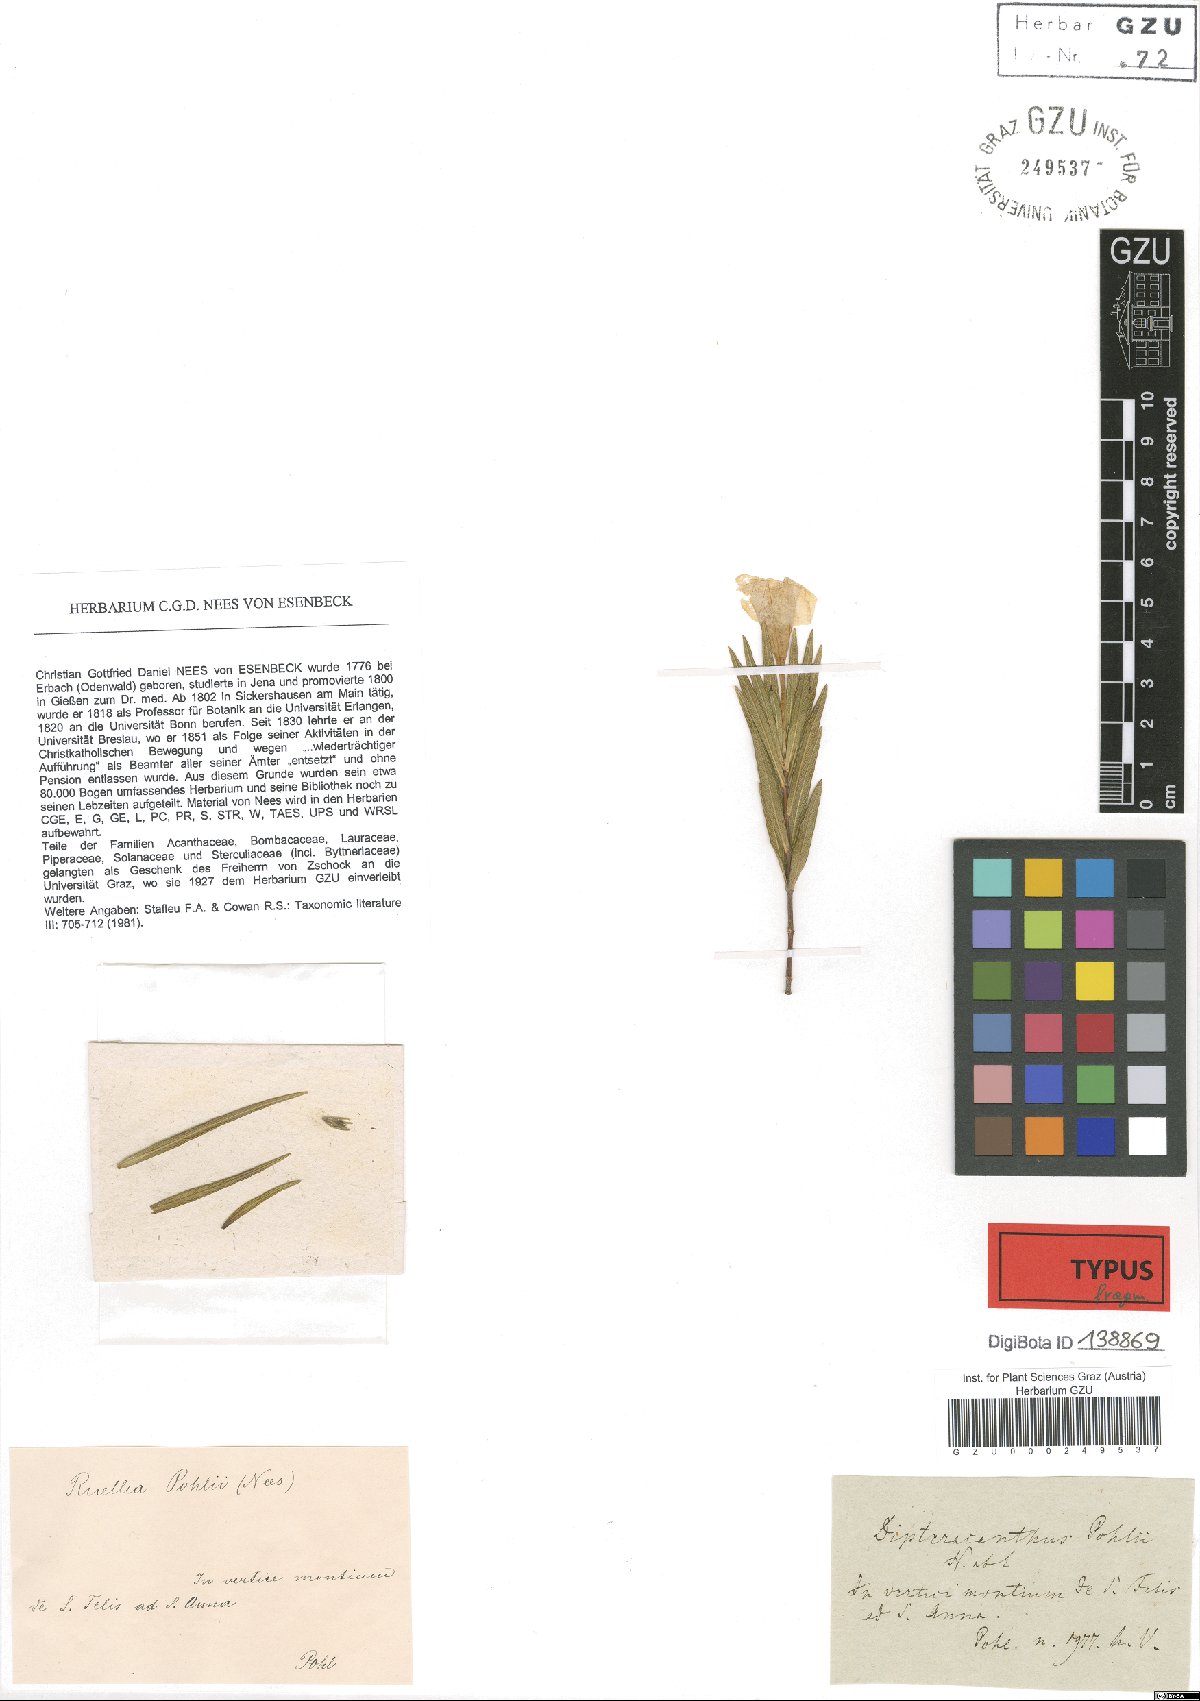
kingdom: Plantae
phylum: Tracheophyta
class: Magnoliopsida
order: Lamiales
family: Acanthaceae
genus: Ruellia
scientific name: Ruellia Dipteracanthus pohlii
